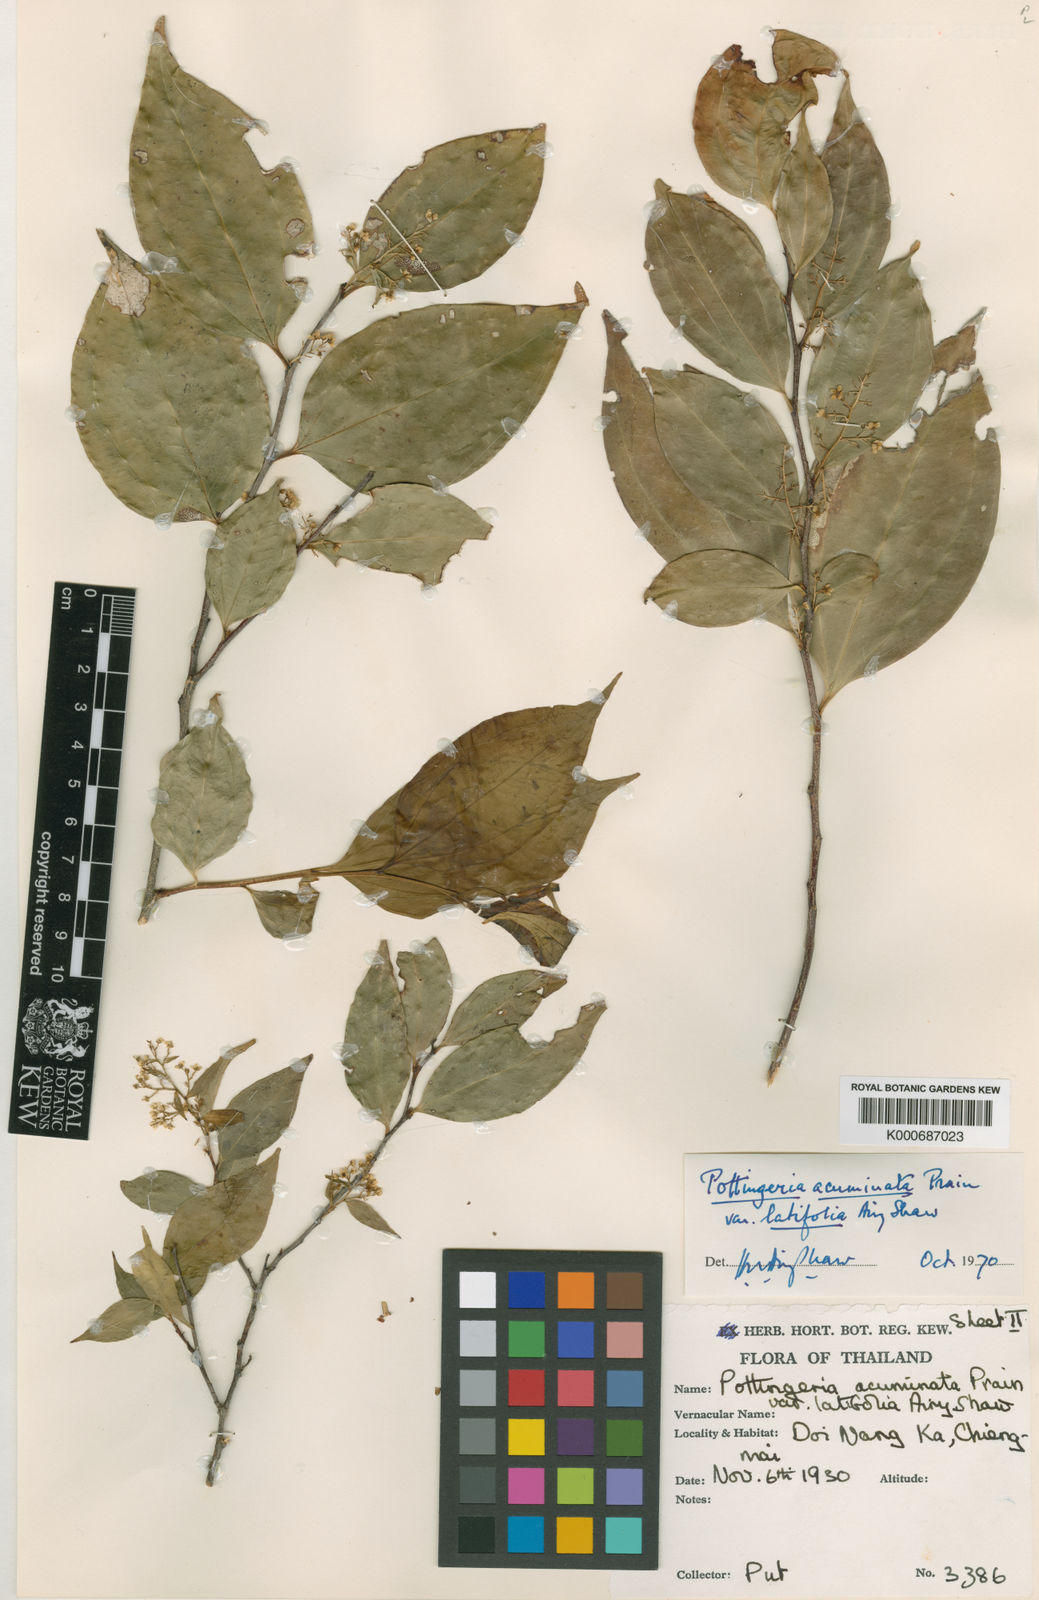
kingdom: Plantae
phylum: Tracheophyta
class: Magnoliopsida
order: Celastrales
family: Celastraceae
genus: Pottingeria
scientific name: Pottingeria
